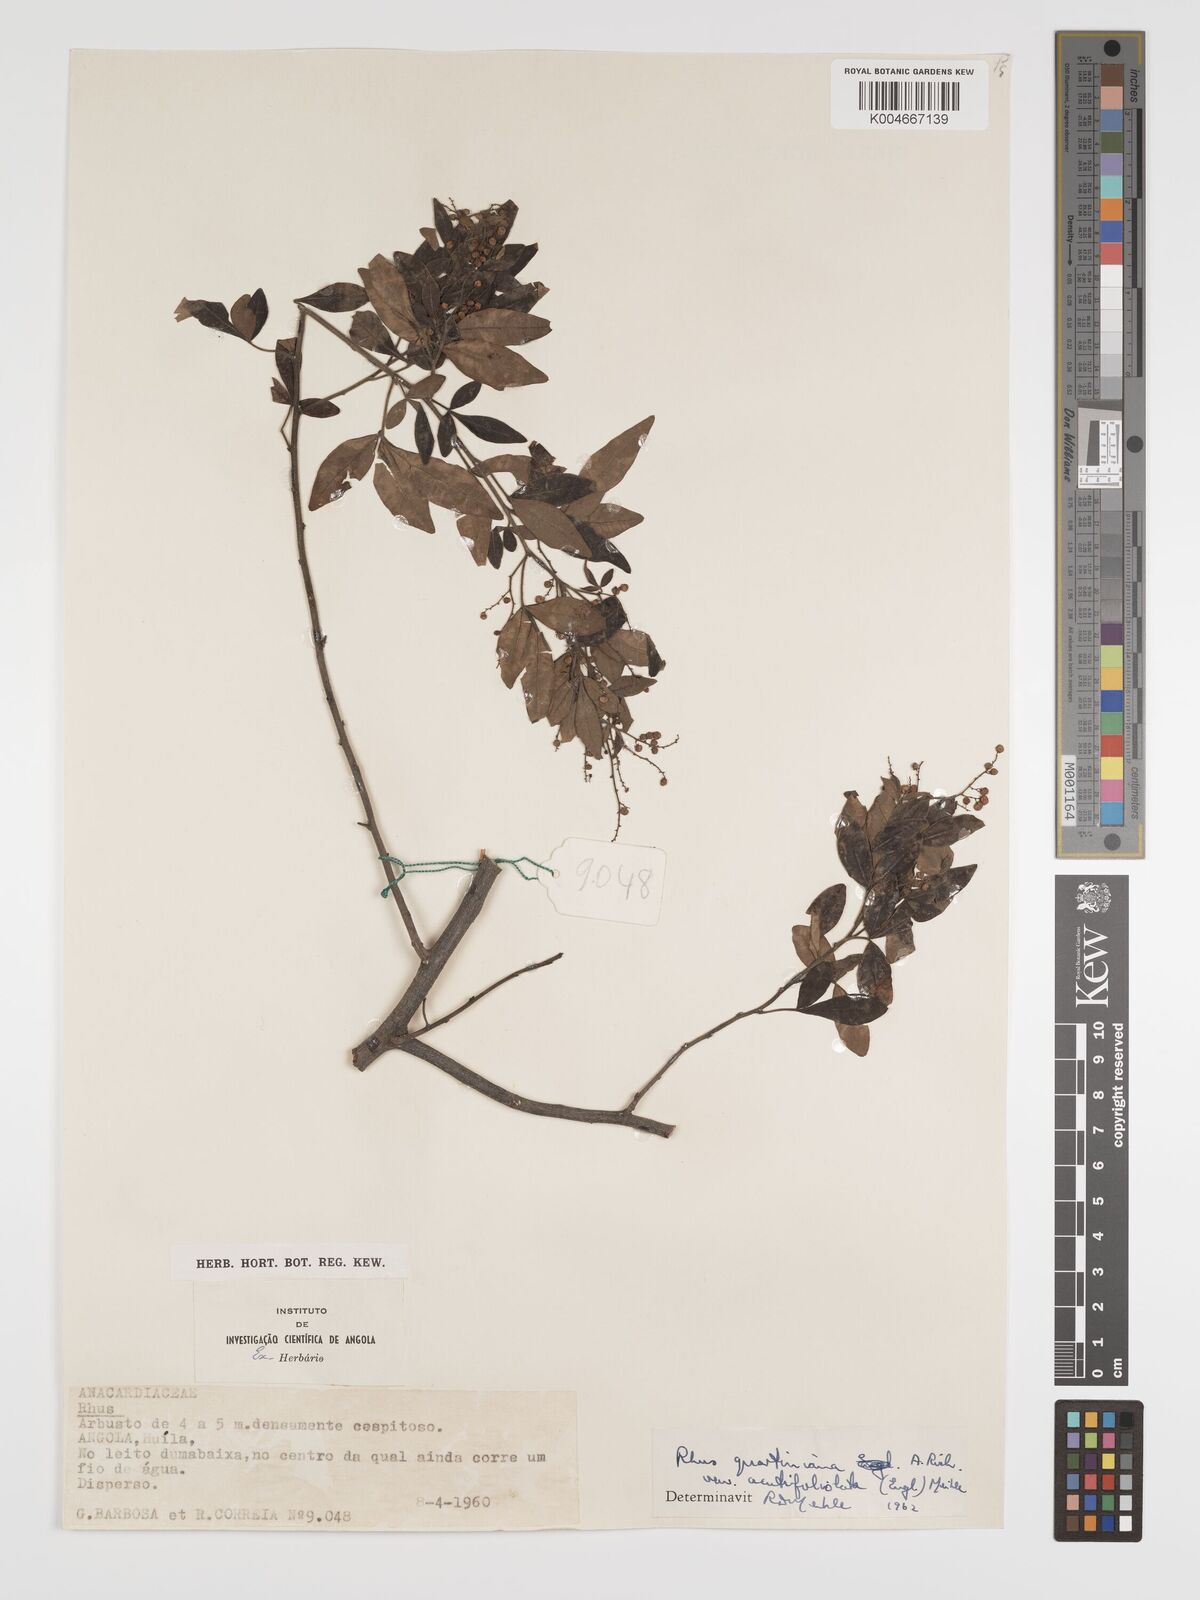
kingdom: Plantae
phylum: Tracheophyta
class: Magnoliopsida
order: Sapindales
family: Anacardiaceae
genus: Searsia
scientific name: Searsia quartiniana
